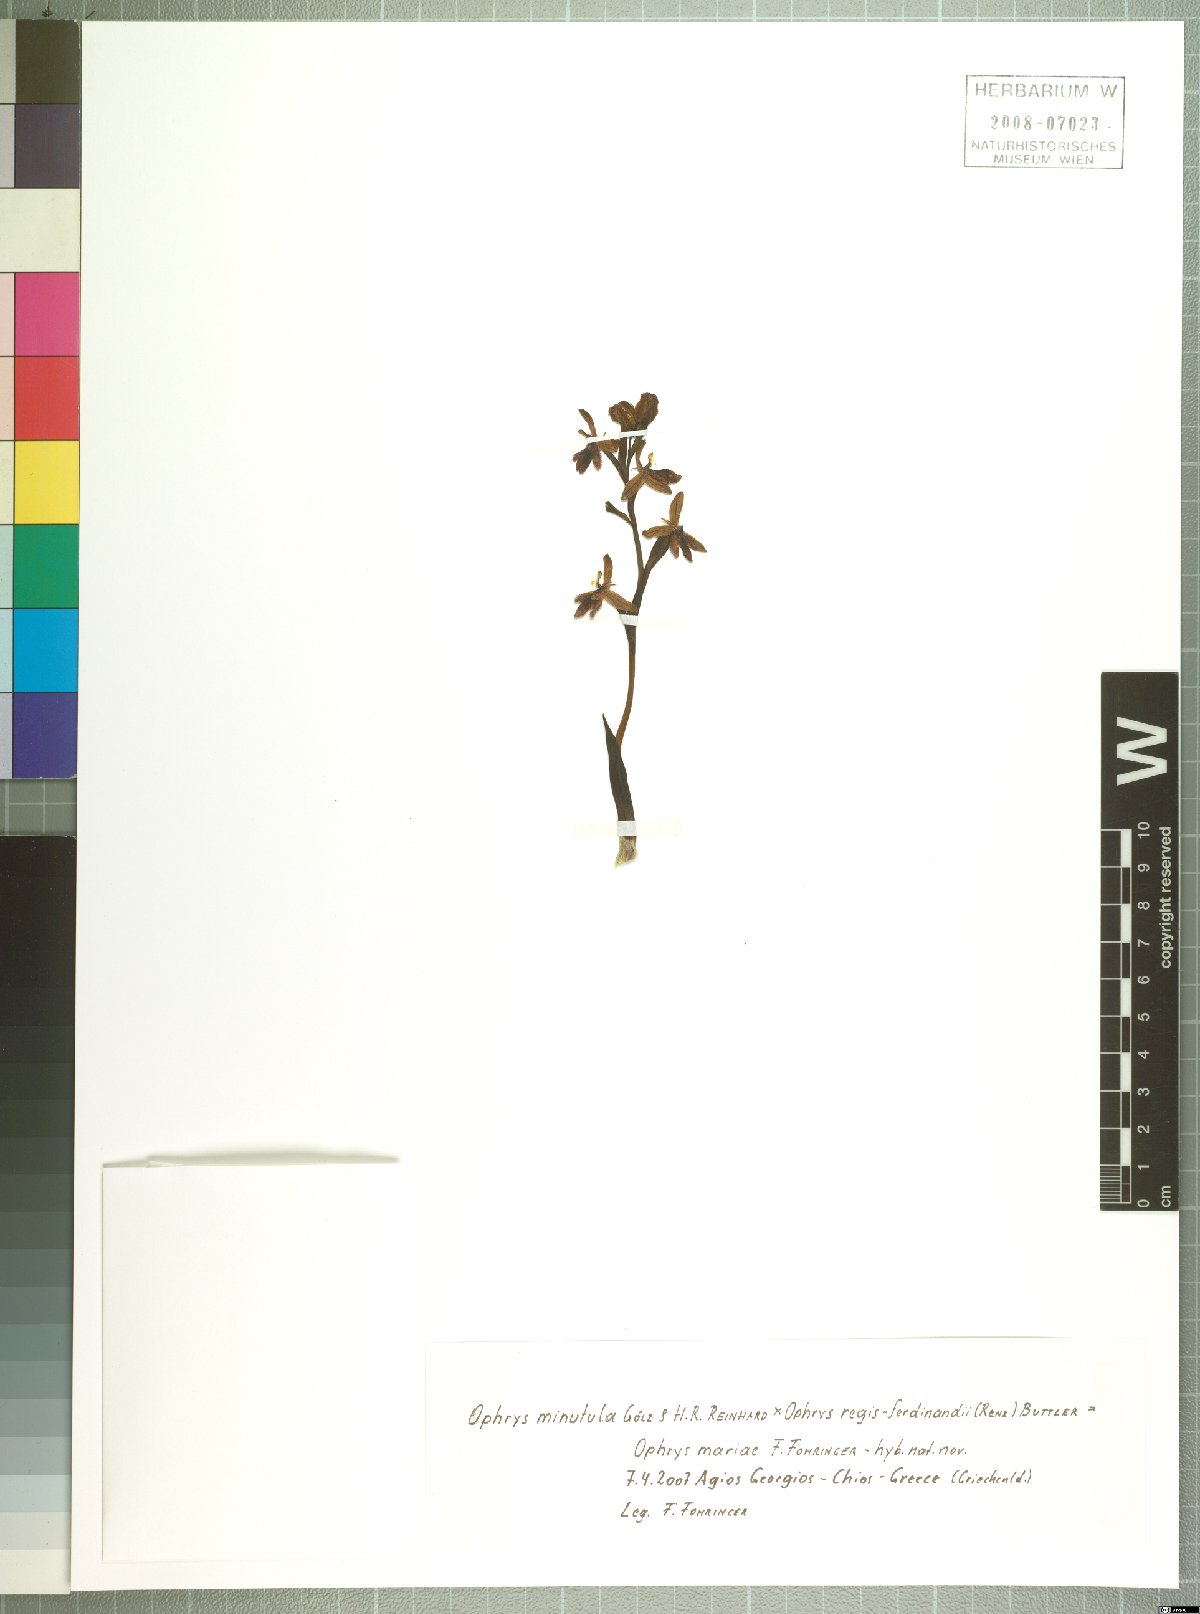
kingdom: Plantae
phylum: Tracheophyta
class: Liliopsida
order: Asparagales
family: Orchidaceae
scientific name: Orchidaceae
